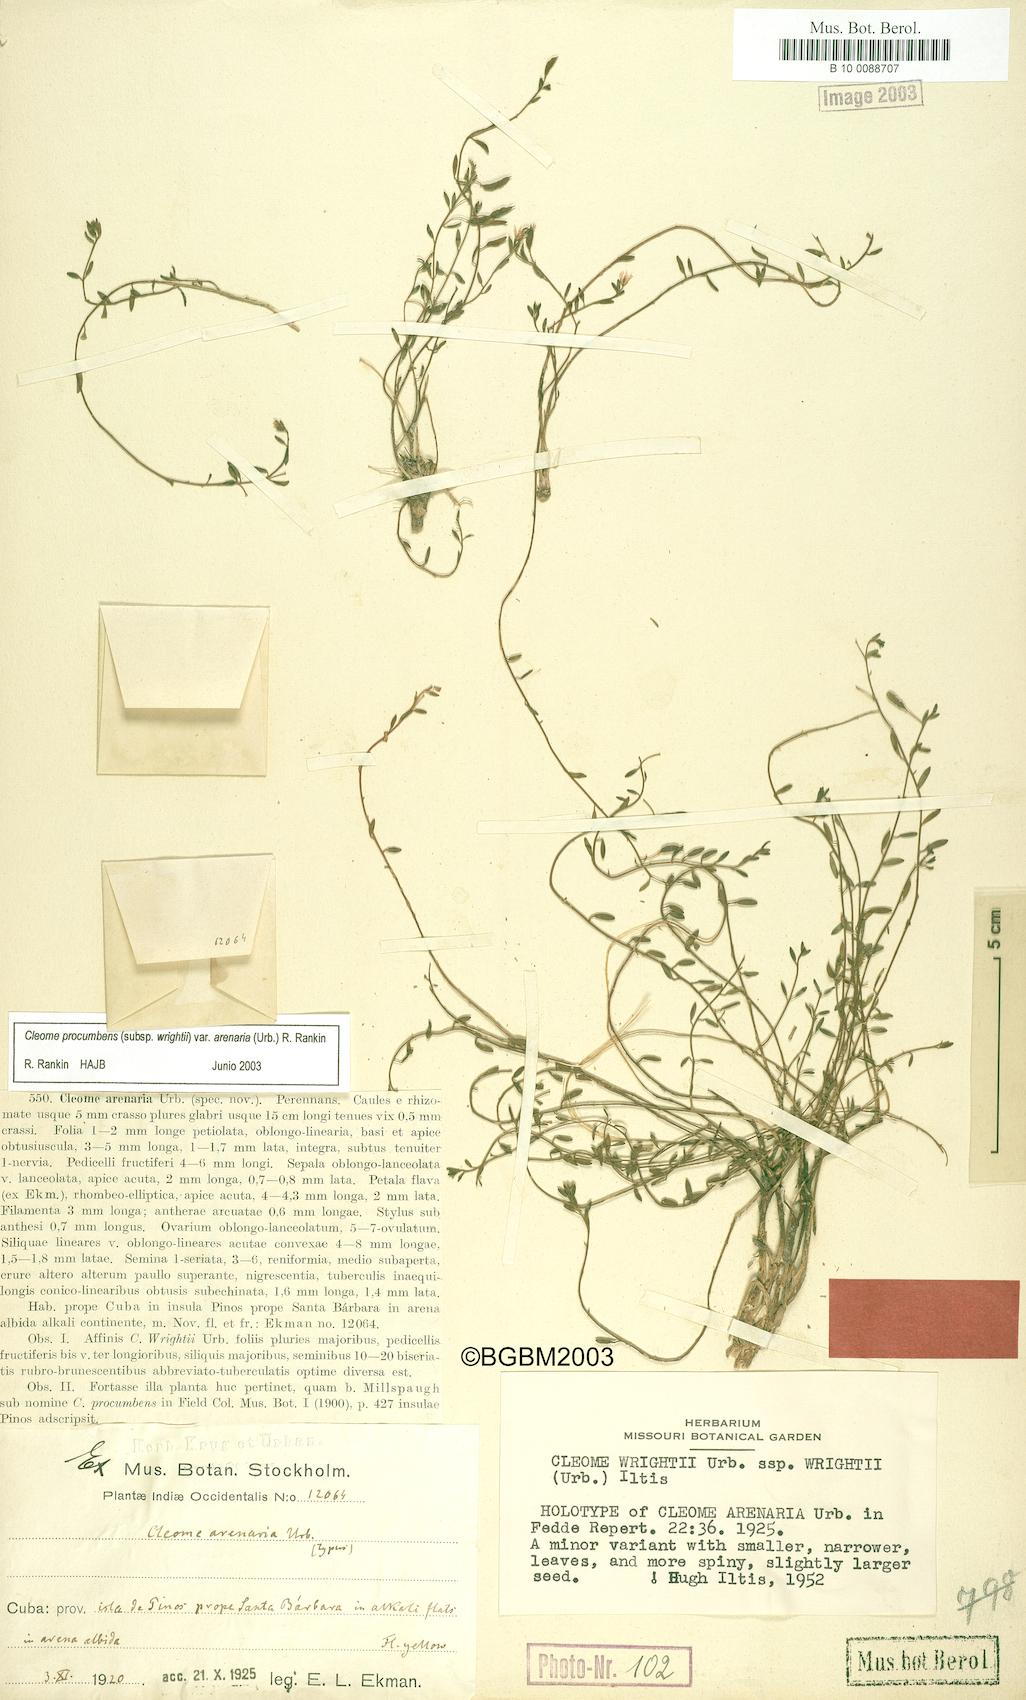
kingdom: Plantae
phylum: Tracheophyta
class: Magnoliopsida
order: Brassicales
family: Cleomaceae
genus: Physostemon
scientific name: Physostemon procumbens
